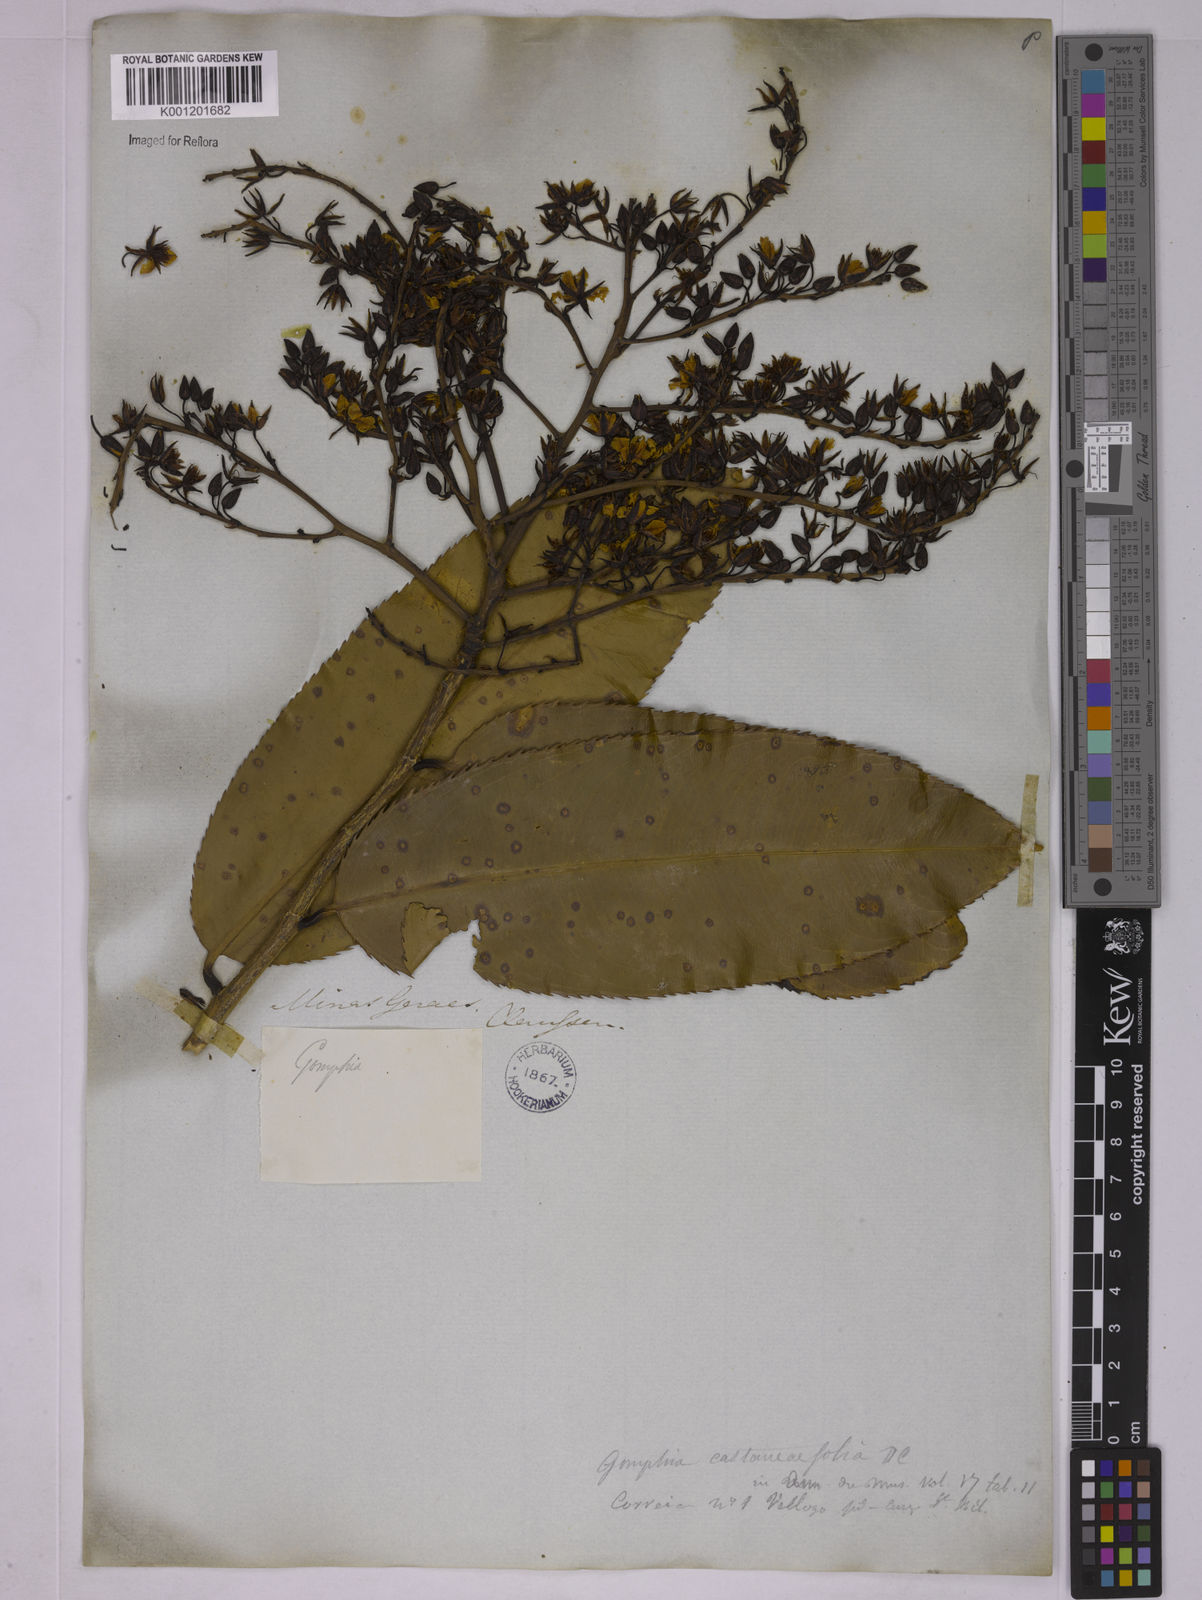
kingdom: Plantae
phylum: Tracheophyta
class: Magnoliopsida
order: Malpighiales
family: Ochnaceae
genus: Ouratea
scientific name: Ouratea castaneifolia
